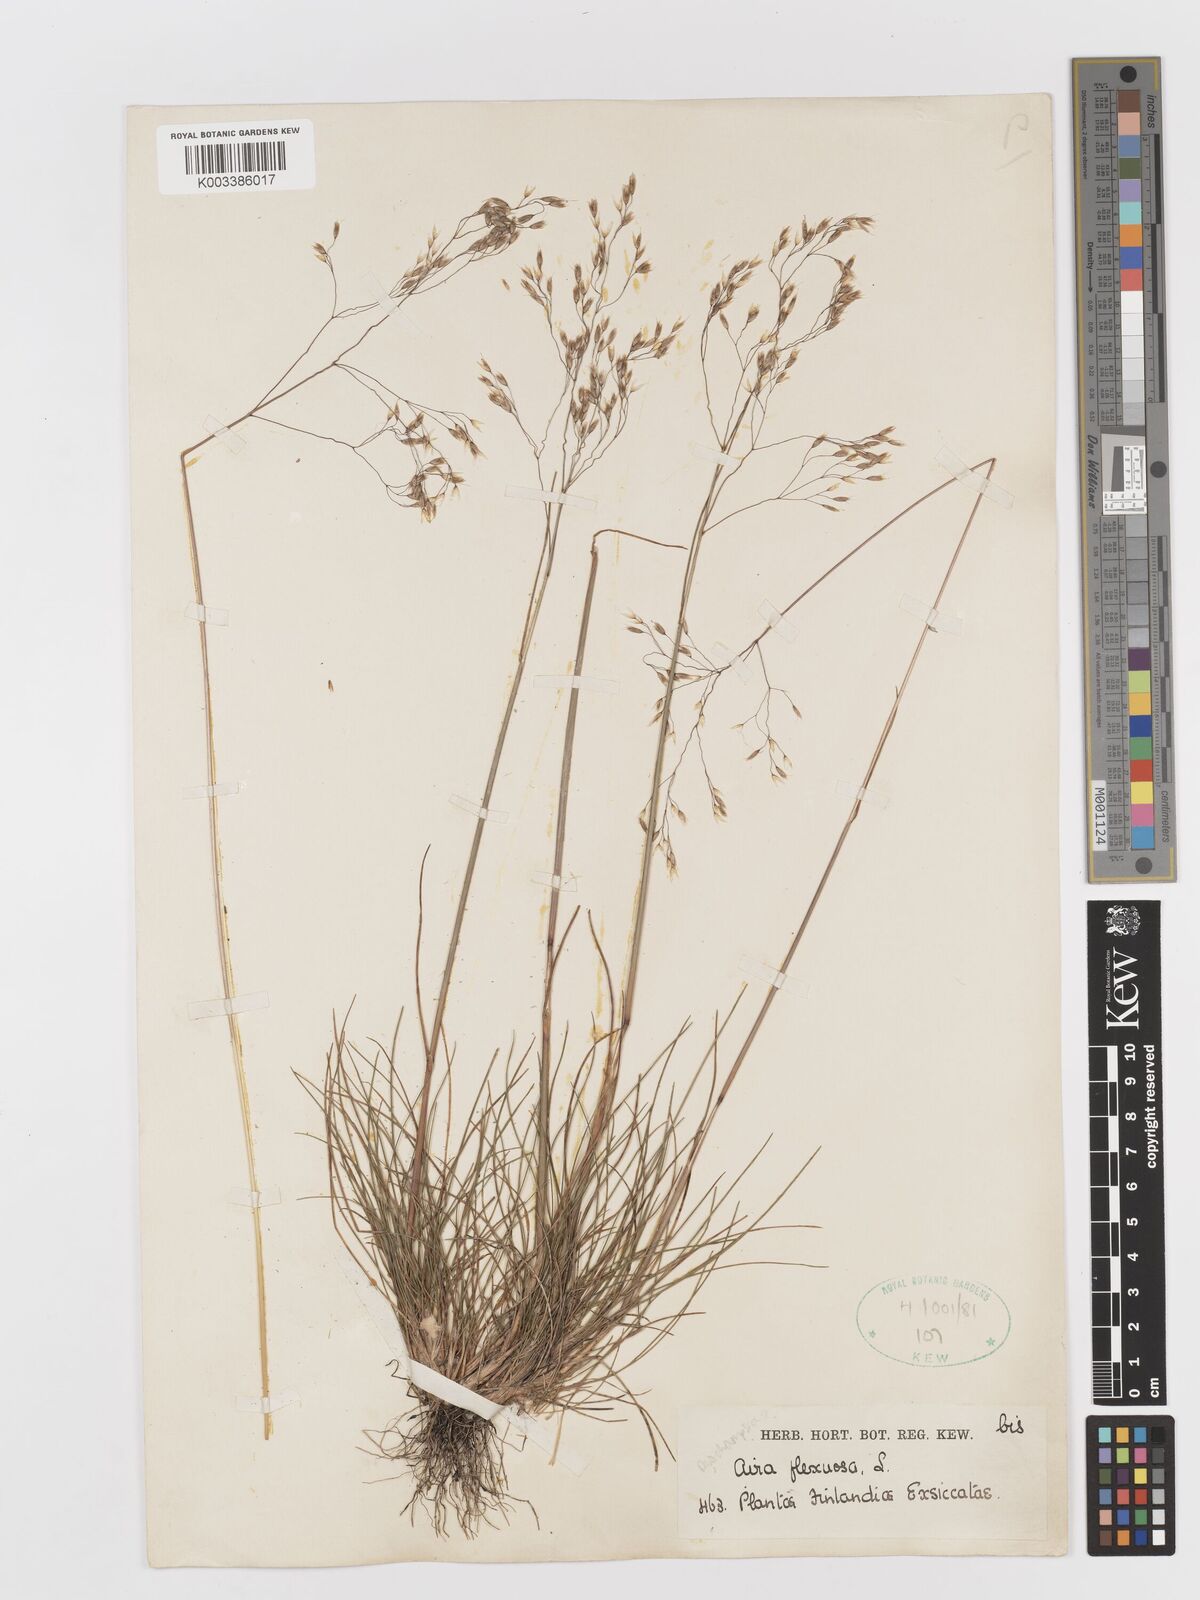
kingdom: Plantae
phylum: Tracheophyta
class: Liliopsida
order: Poales
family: Poaceae
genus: Avenella
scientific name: Avenella flexuosa
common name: Wavy hairgrass
